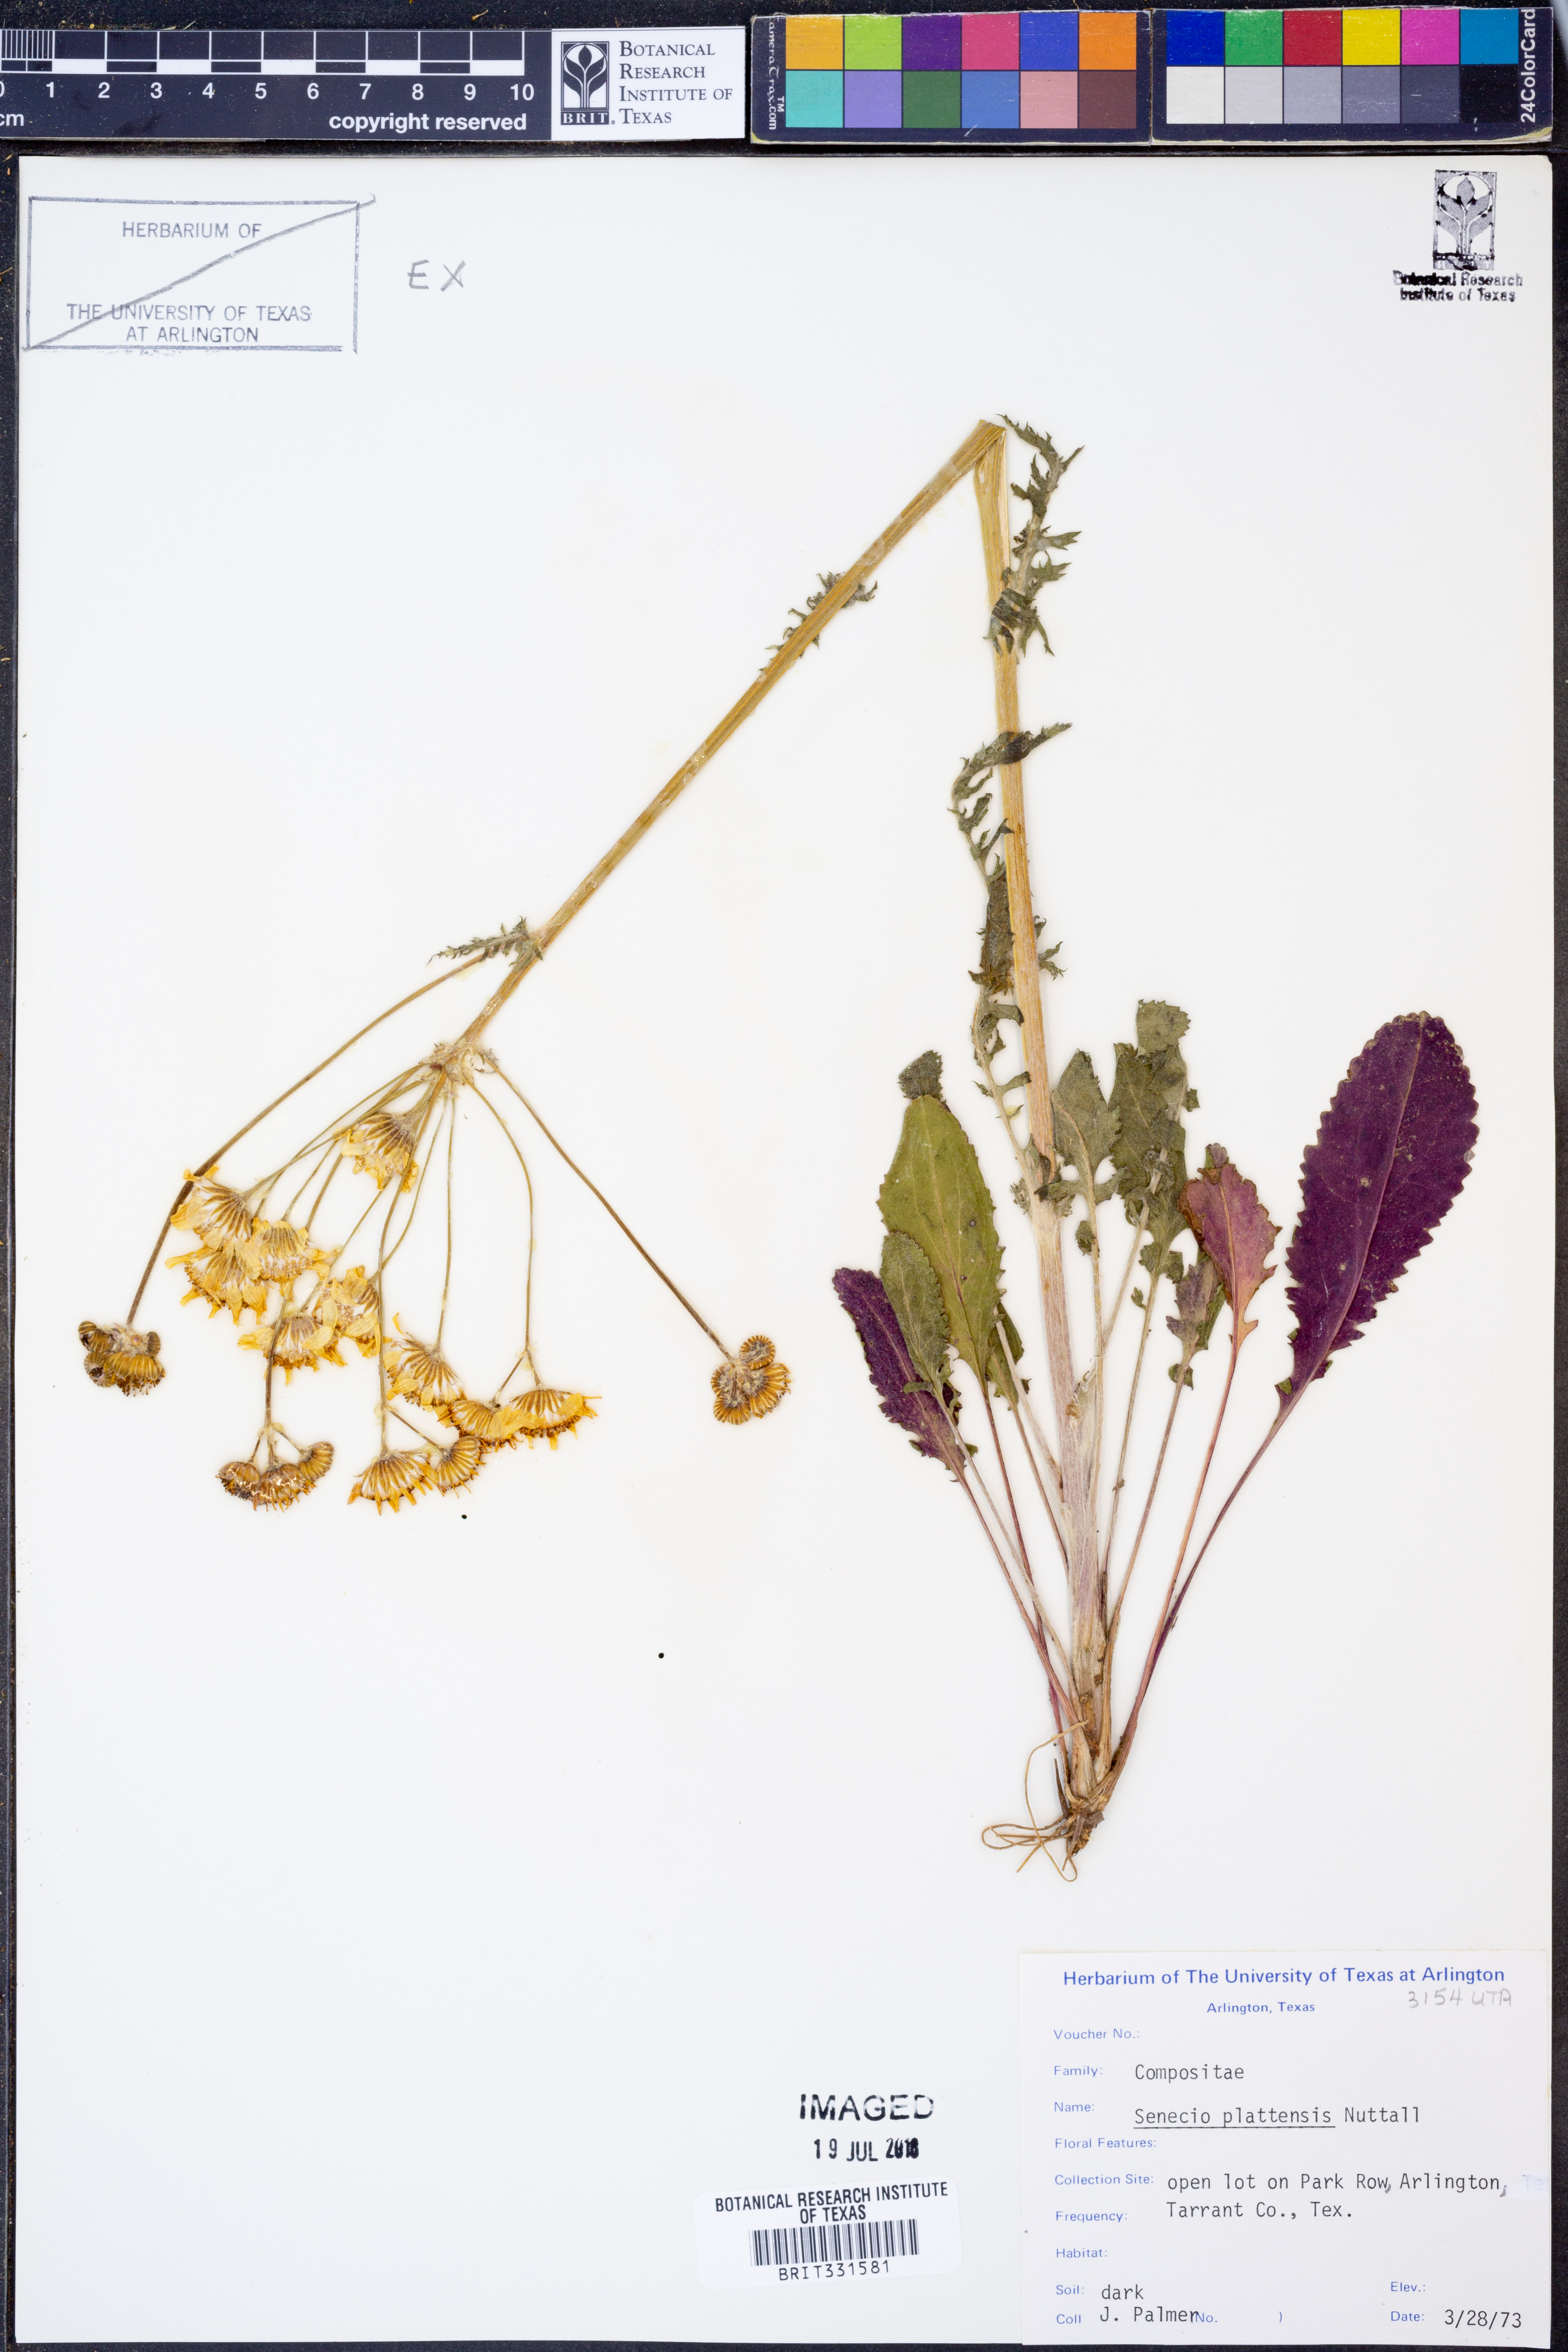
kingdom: Plantae
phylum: Tracheophyta
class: Magnoliopsida
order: Asterales
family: Asteraceae
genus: Packera
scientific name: Packera plattensis
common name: Prairie groundsel
